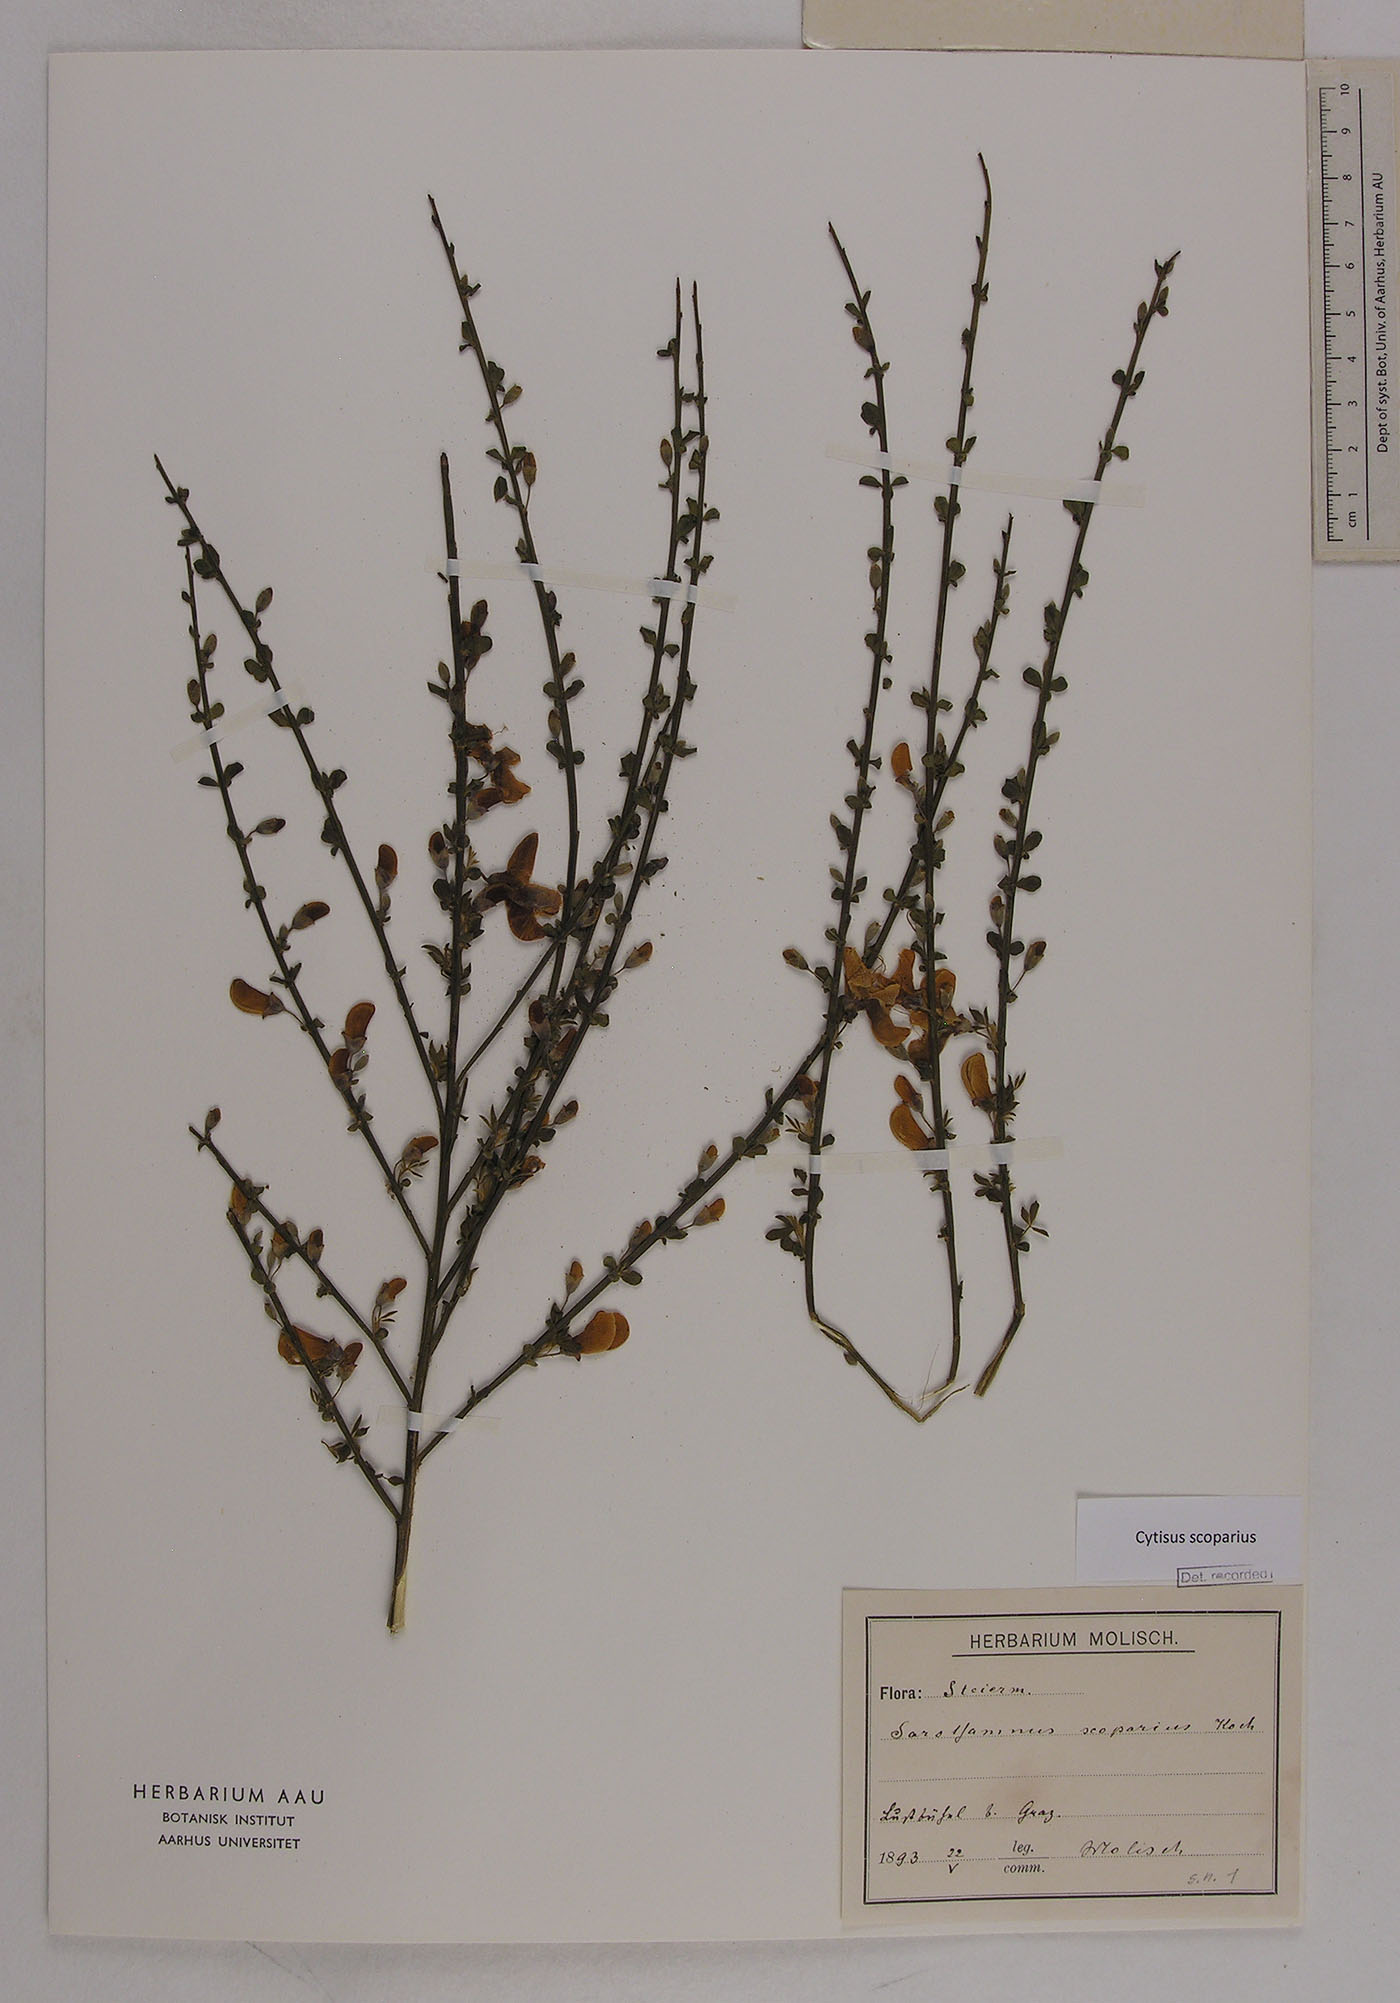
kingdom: Plantae
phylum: Tracheophyta
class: Magnoliopsida
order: Fabales
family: Fabaceae
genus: Cytisus
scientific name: Cytisus scoparius
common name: Scotch broom
